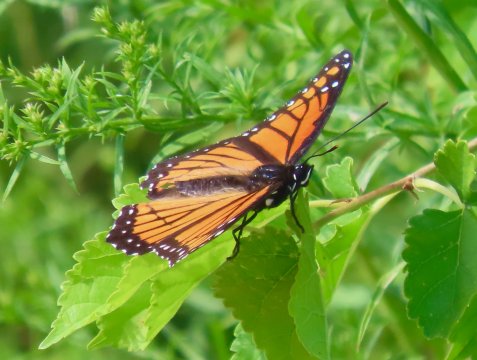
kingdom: Animalia
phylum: Arthropoda
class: Insecta
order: Lepidoptera
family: Nymphalidae
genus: Limenitis
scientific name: Limenitis archippus
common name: Viceroy
